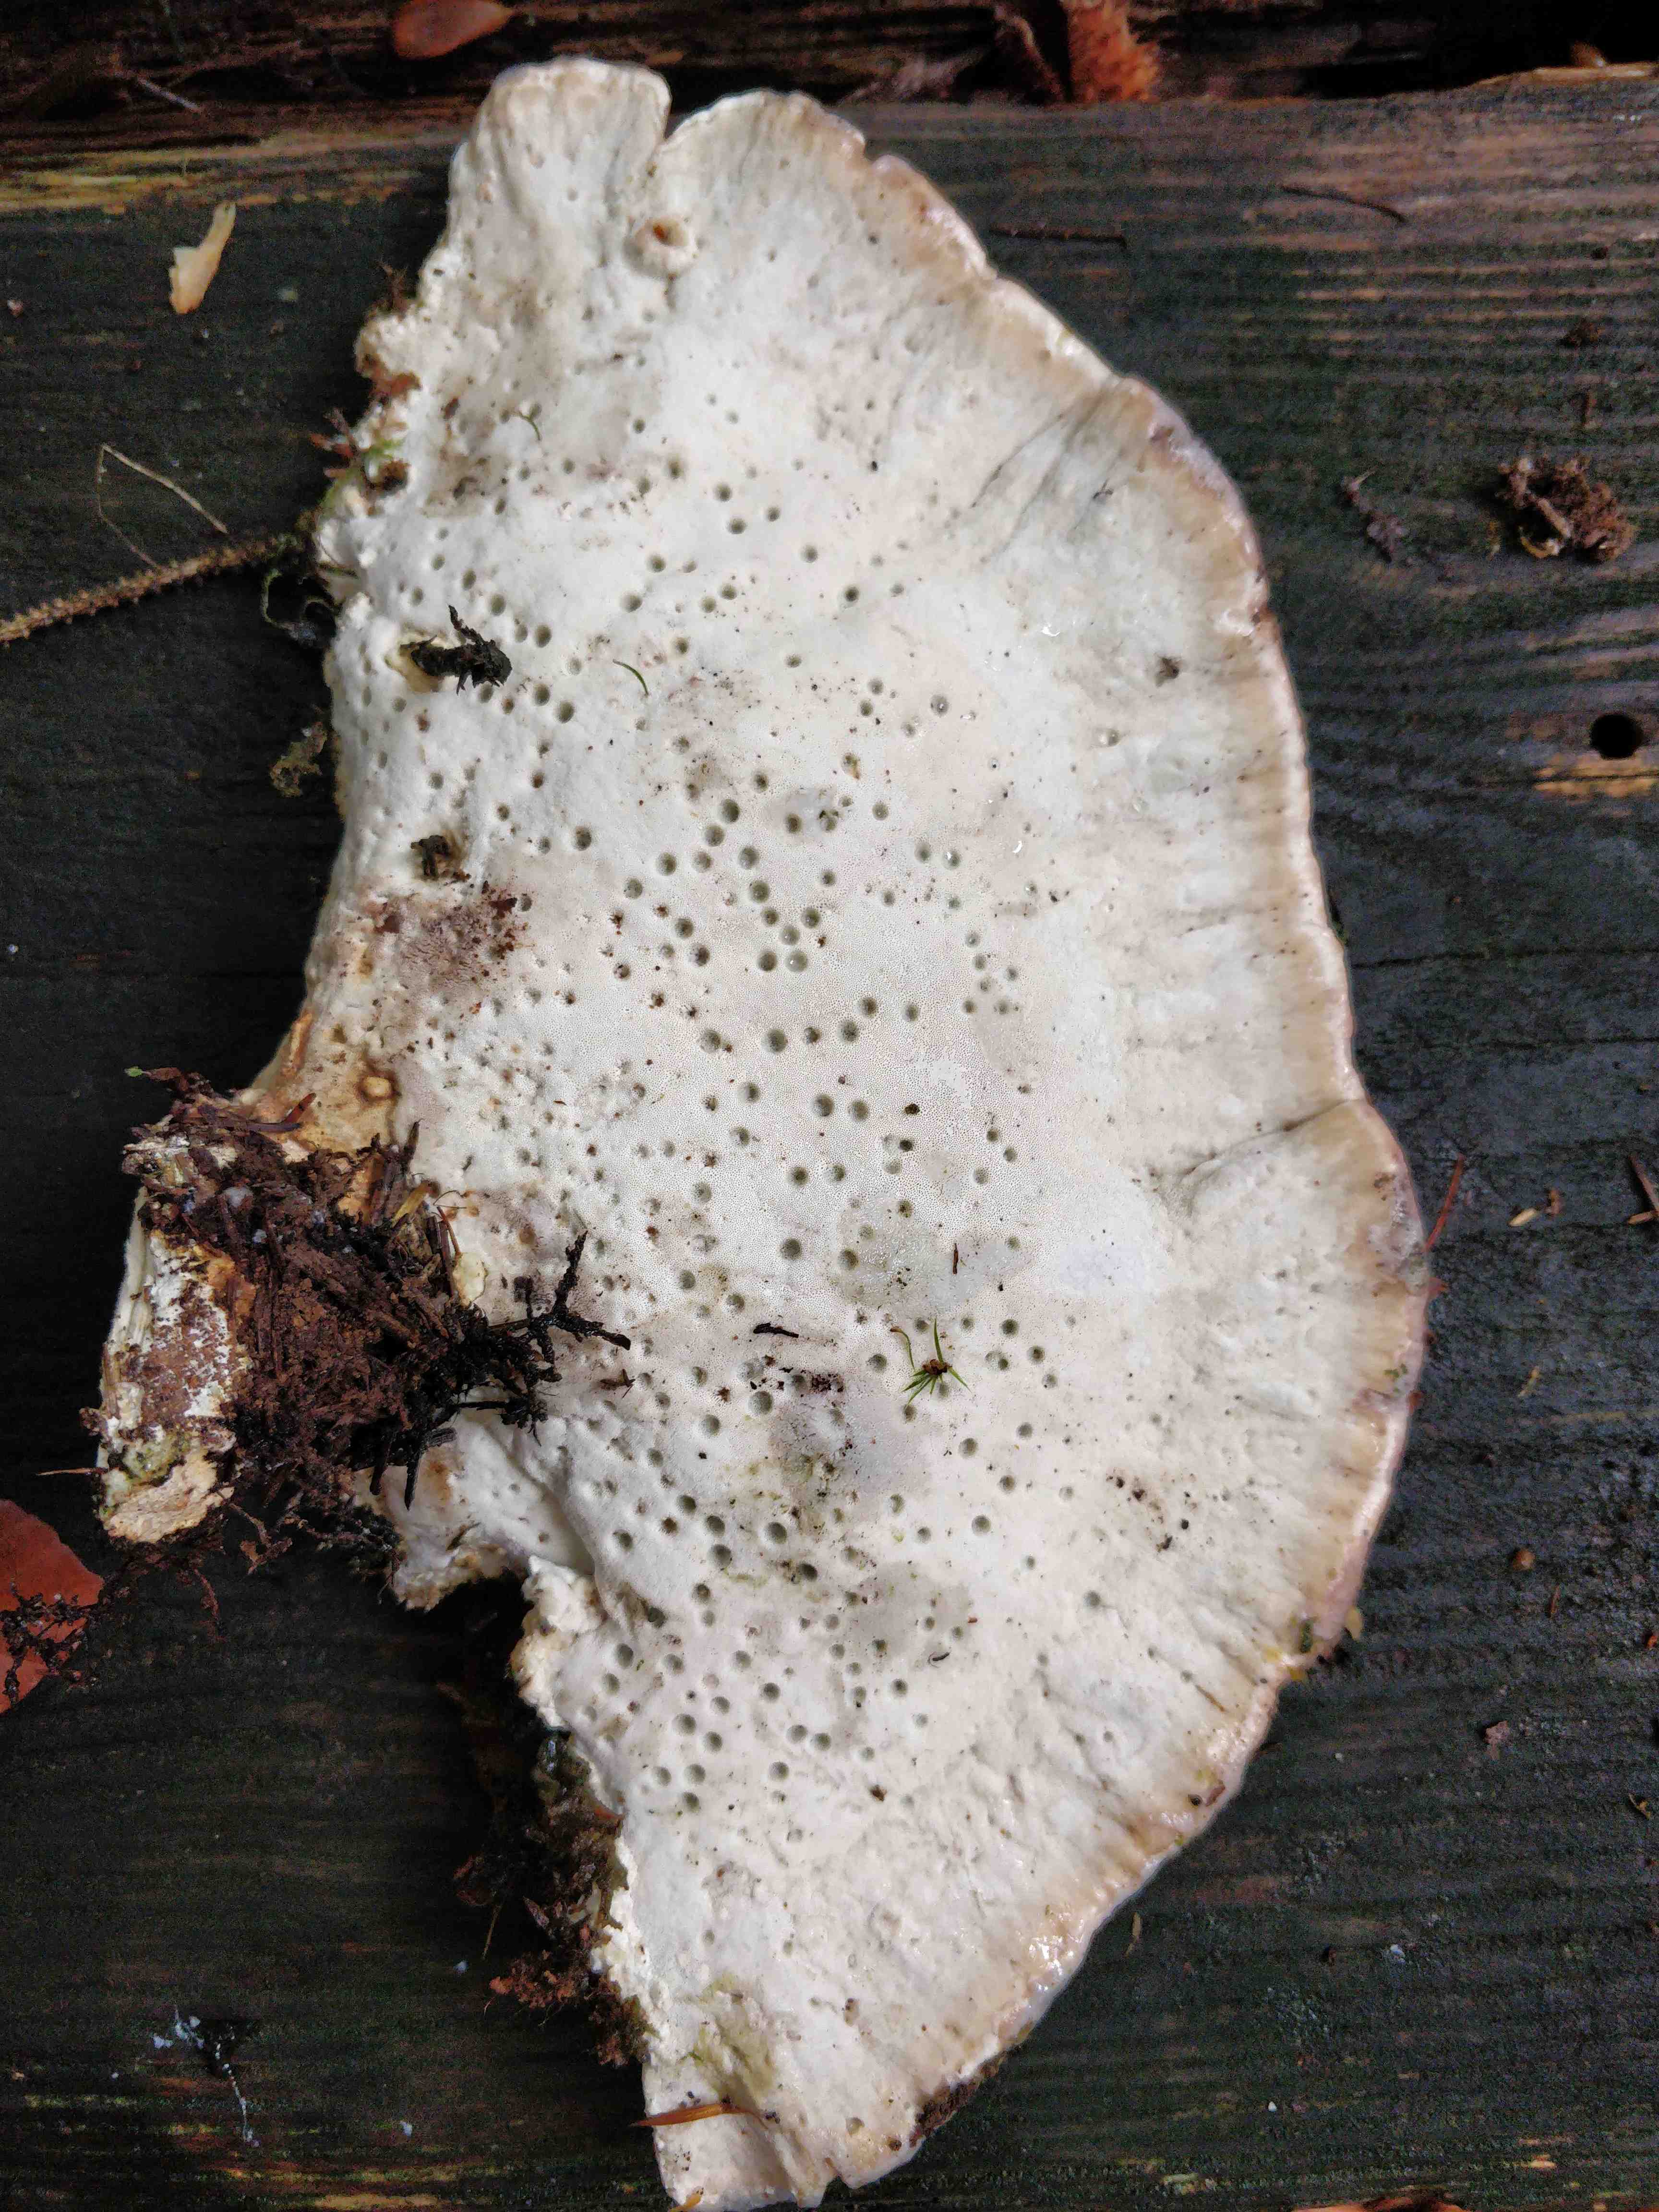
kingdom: Fungi
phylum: Basidiomycota
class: Agaricomycetes
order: Polyporales
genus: Calcipostia
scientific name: Calcipostia guttulata
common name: dråbe-kødporesvamp
